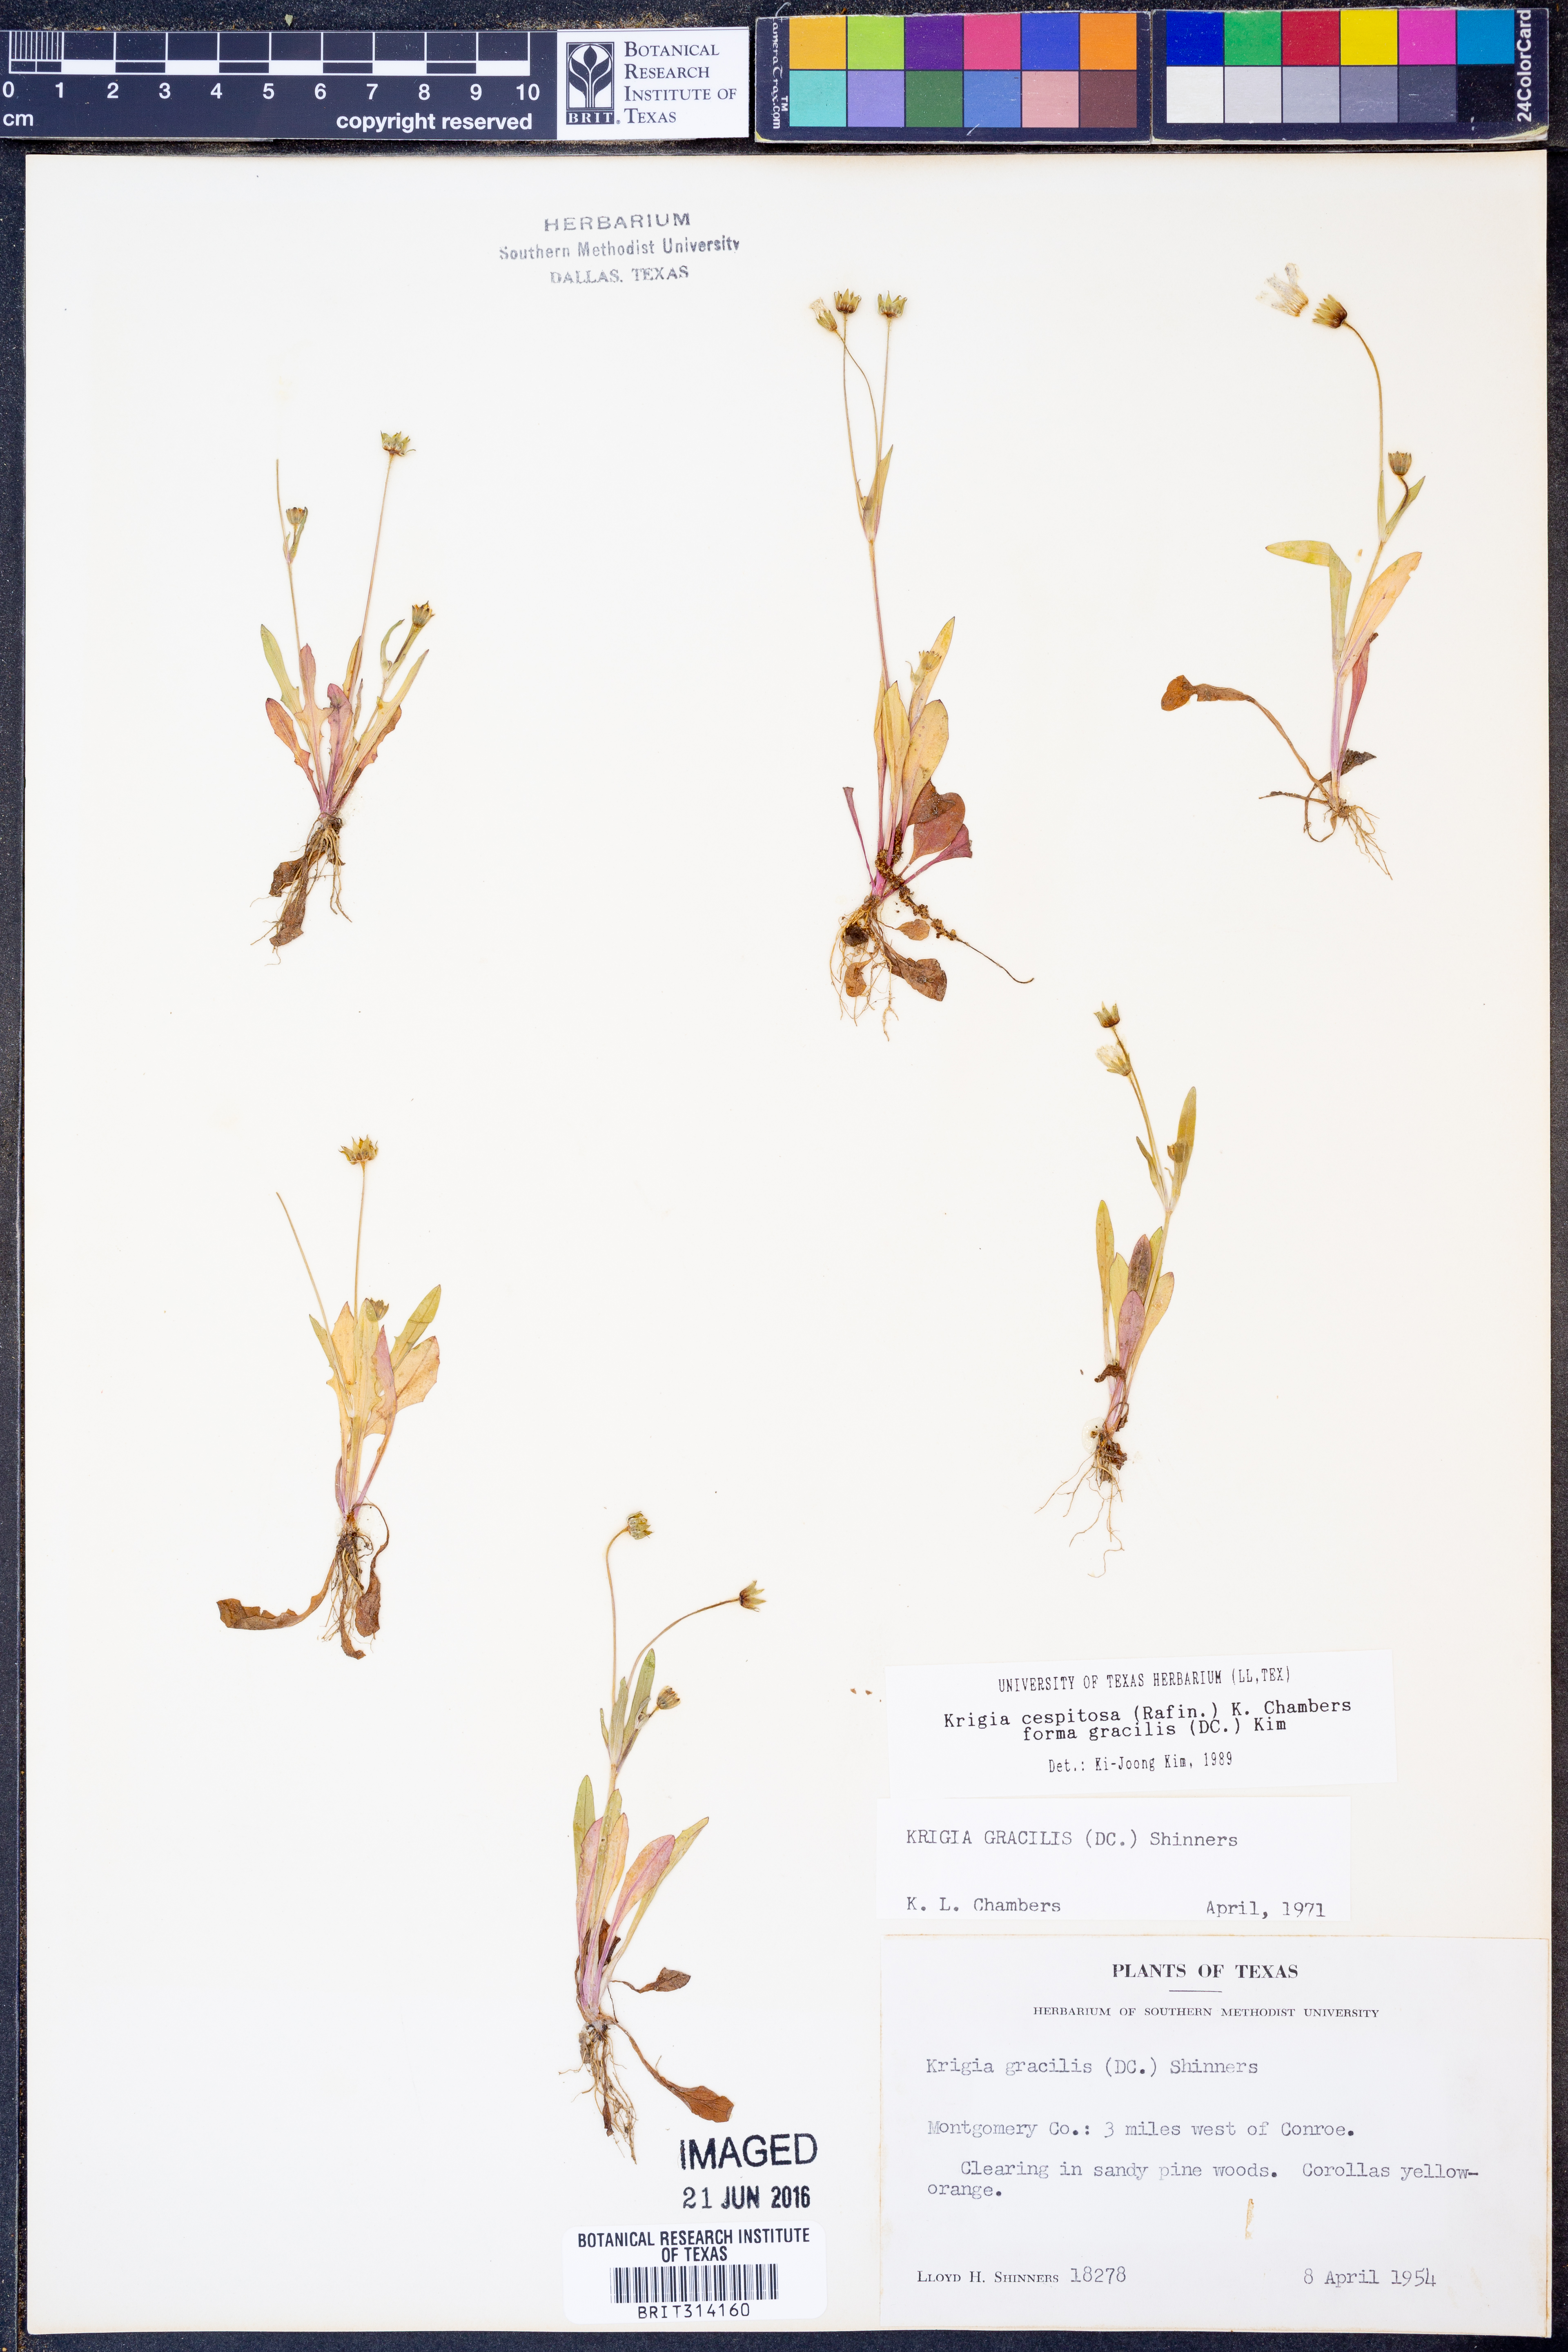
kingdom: Plantae
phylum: Tracheophyta
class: Magnoliopsida
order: Asterales
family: Asteraceae
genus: Krigia
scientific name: Krigia cespitosa
